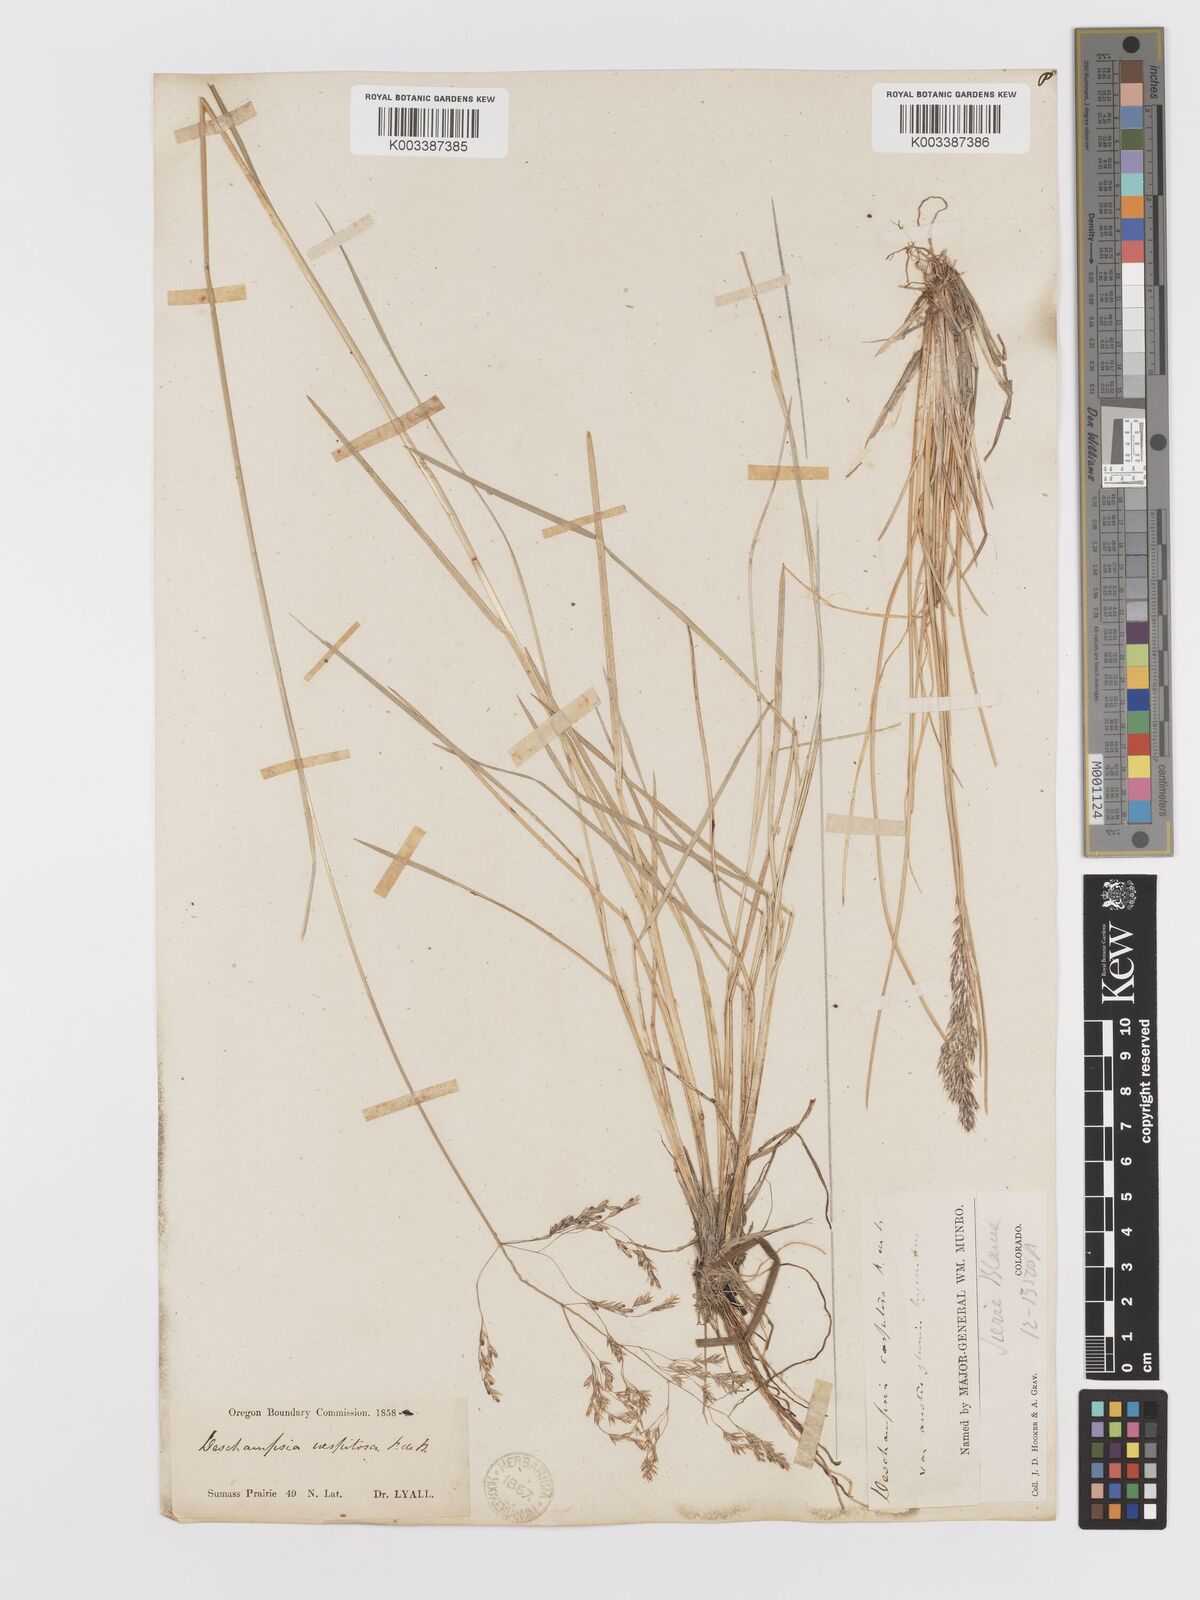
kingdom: Plantae
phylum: Tracheophyta
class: Liliopsida
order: Poales
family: Poaceae
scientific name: Poaceae
